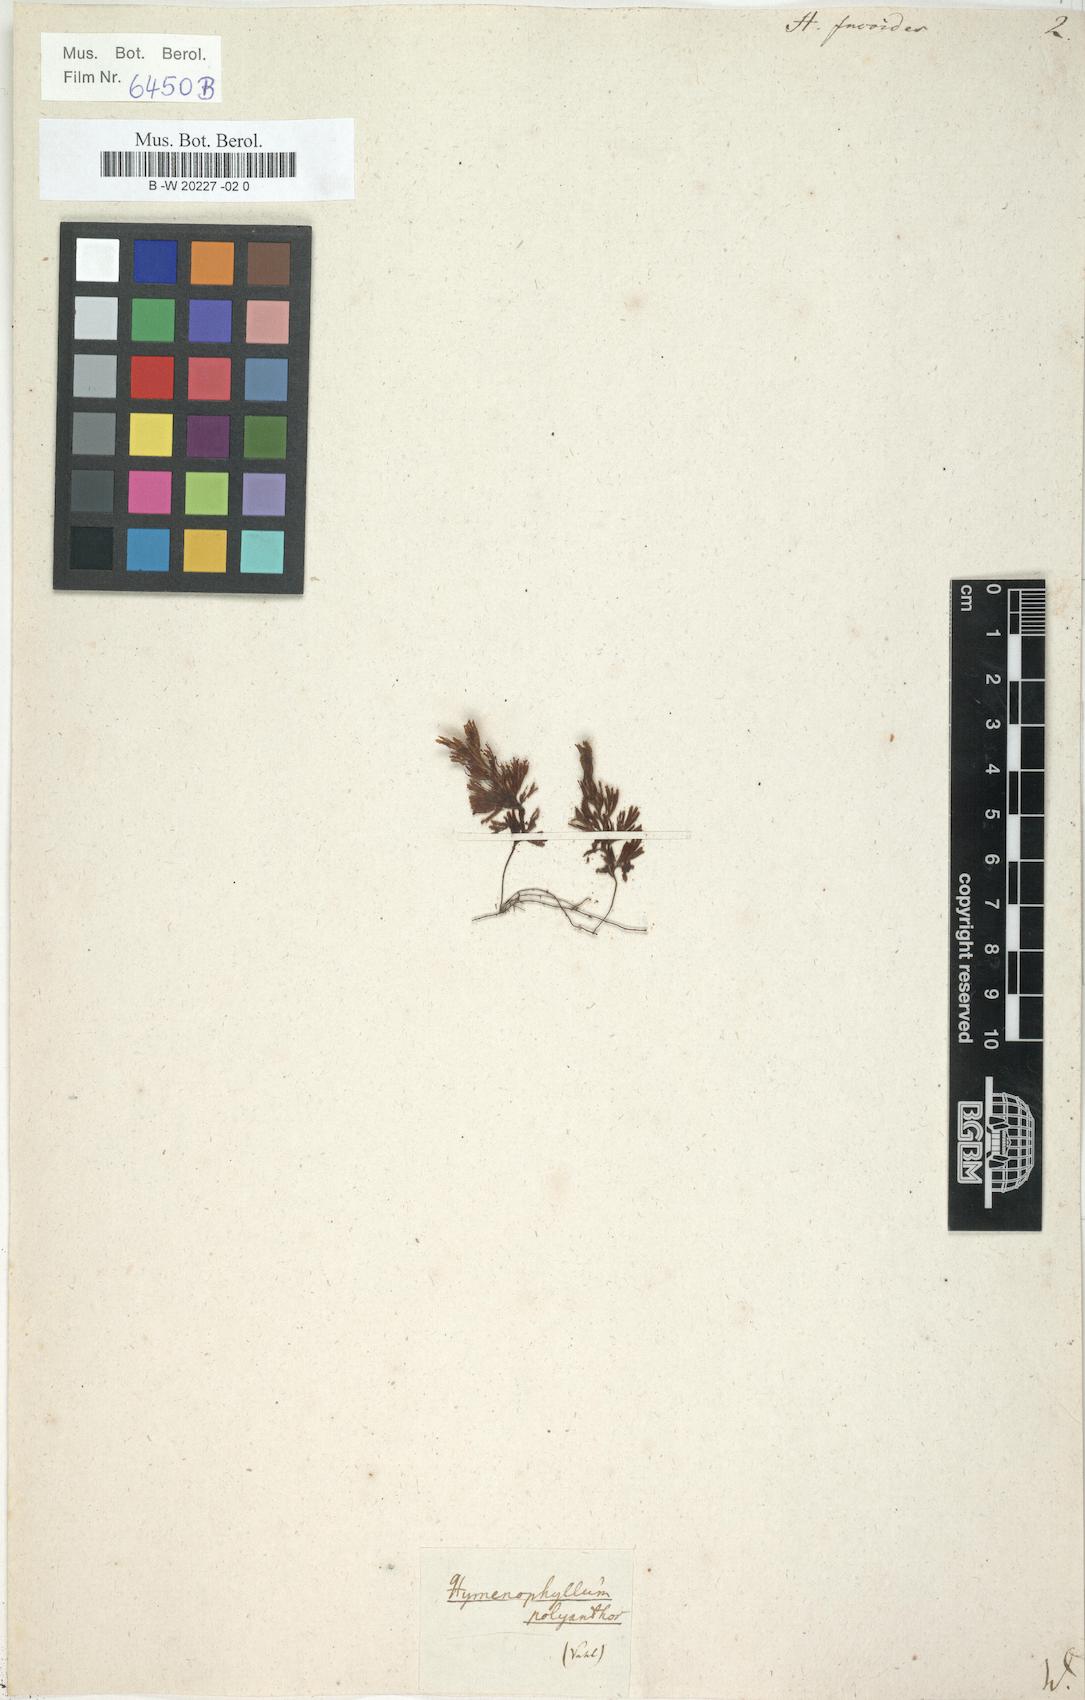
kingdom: Plantae
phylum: Tracheophyta
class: Polypodiopsida
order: Hymenophyllales
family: Hymenophyllaceae
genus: Hymenophyllum
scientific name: Hymenophyllum fucoides
